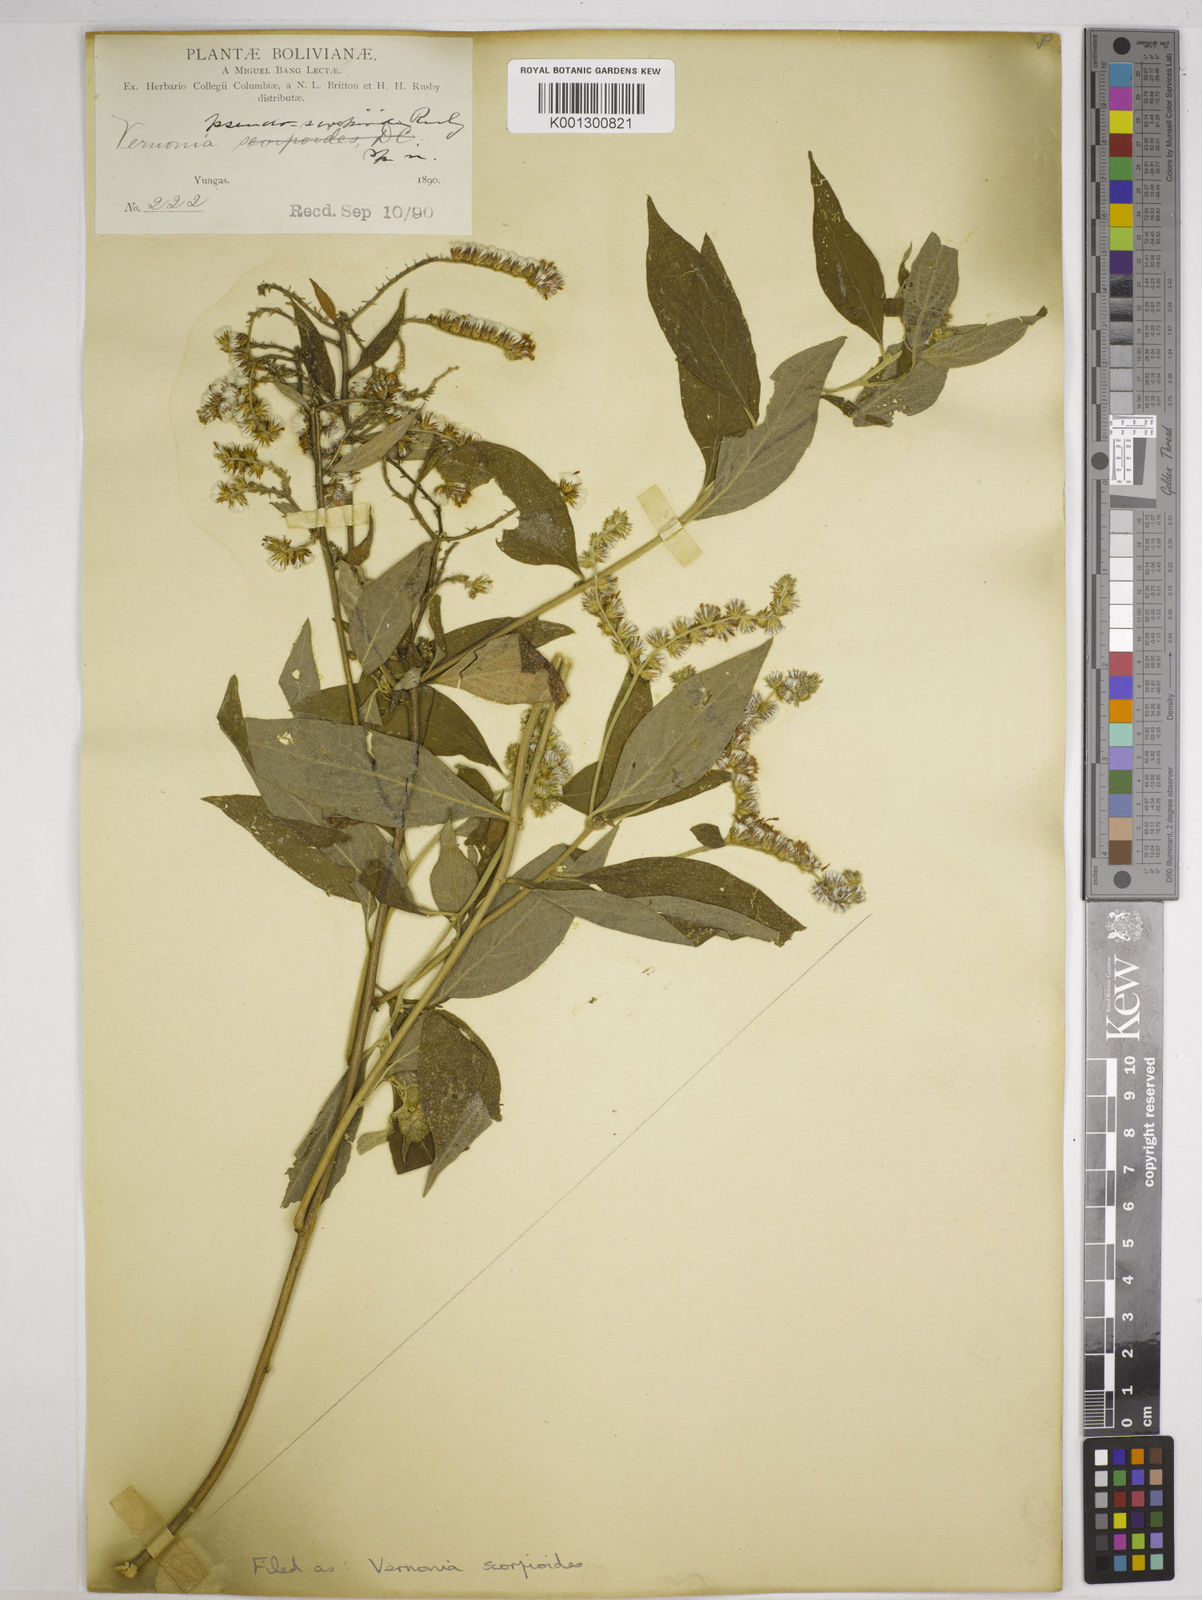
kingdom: Plantae
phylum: Tracheophyta
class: Magnoliopsida
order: Asterales
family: Asteraceae
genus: Cyrtocymura
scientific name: Cyrtocymura scorpioides
